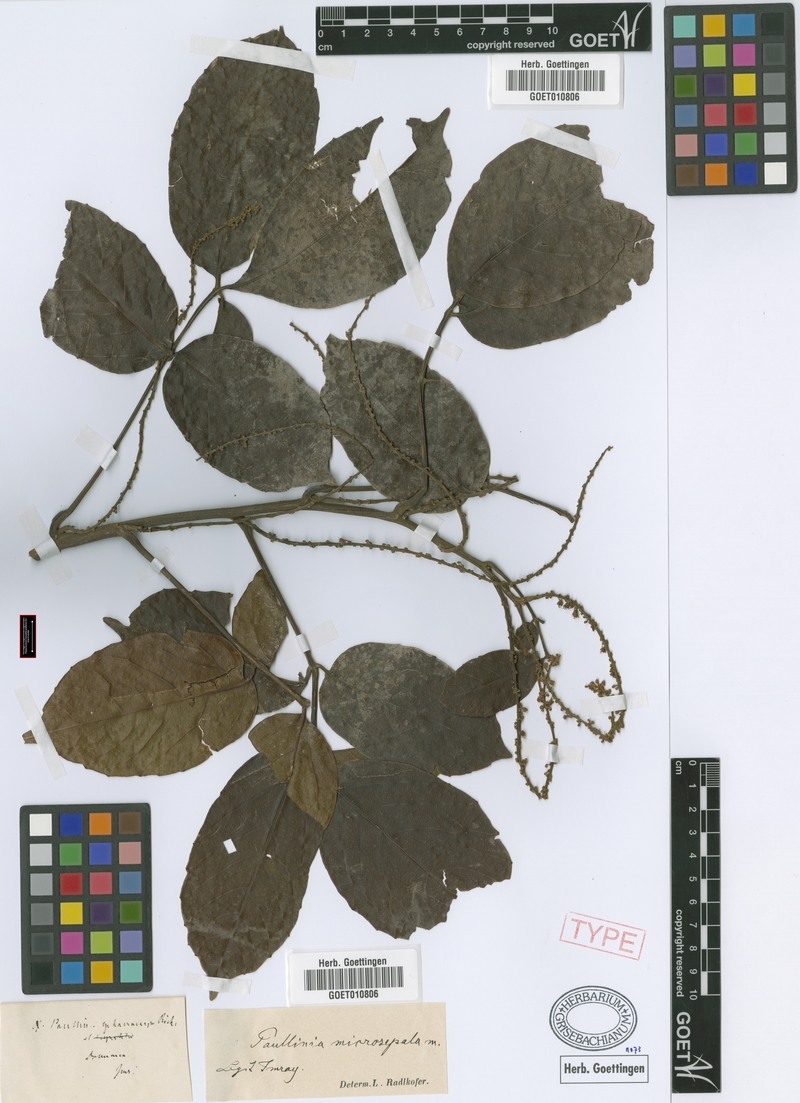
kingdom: Plantae
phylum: Tracheophyta
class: Magnoliopsida
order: Sapindales
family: Sapindaceae
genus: Paullinia
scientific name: Paullinia vespertilio
